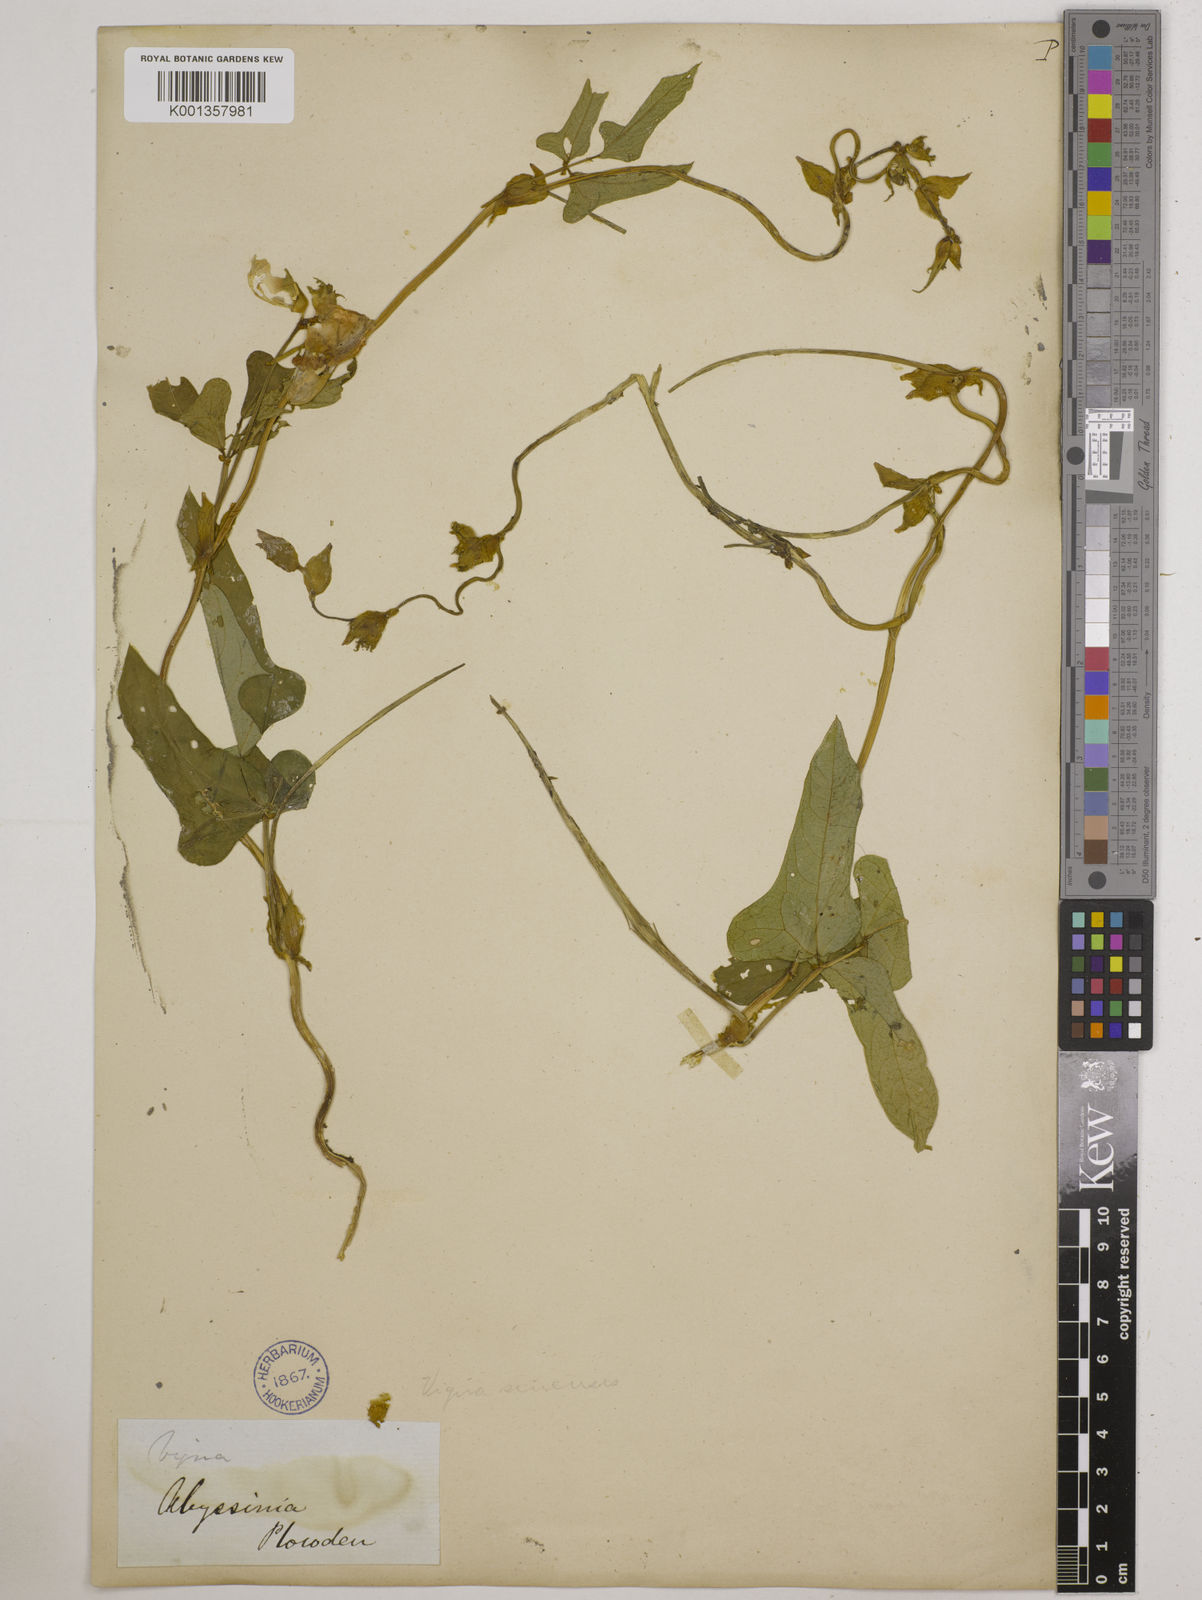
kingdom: Plantae
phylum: Tracheophyta
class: Magnoliopsida
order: Fabales
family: Fabaceae
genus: Vigna
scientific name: Vigna
